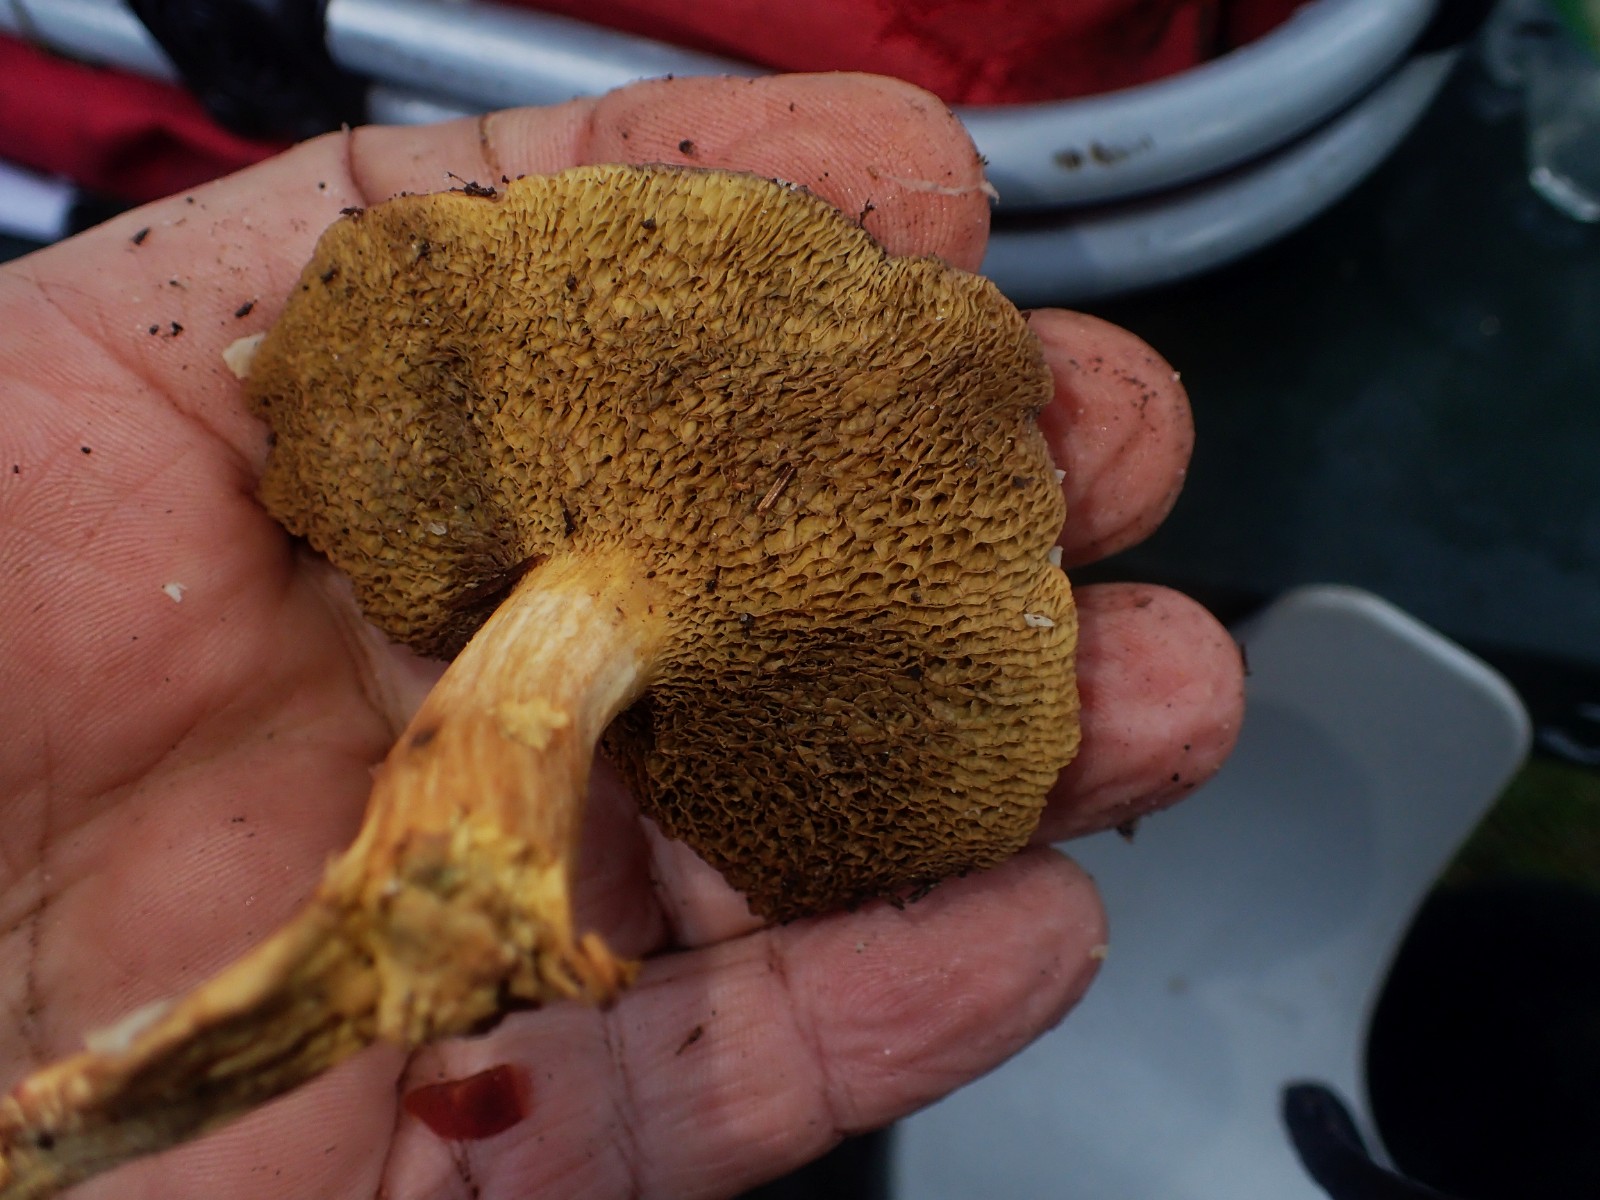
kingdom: Fungi
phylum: Basidiomycota
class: Agaricomycetes
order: Boletales
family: Suillaceae
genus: Suillus
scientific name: Suillus bovinus
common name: grovporet slimrørhat
